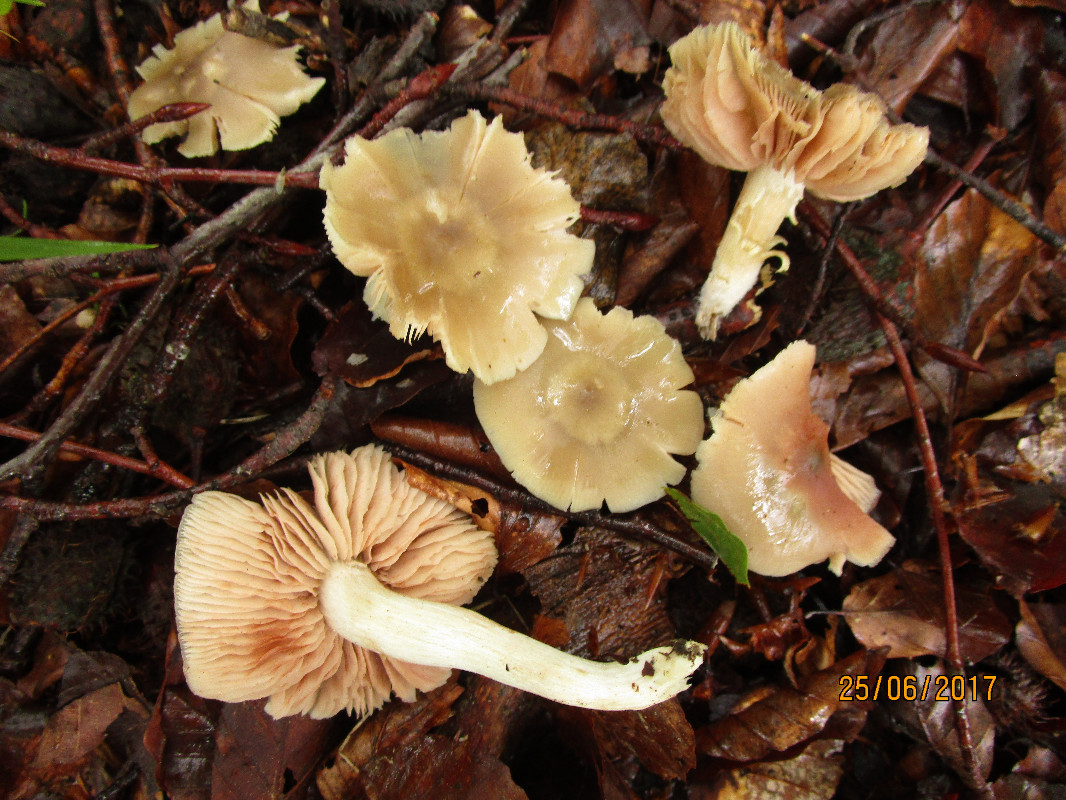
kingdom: Fungi
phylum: Basidiomycota
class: Agaricomycetes
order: Agaricales
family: Entolomataceae
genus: Entoloma
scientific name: Entoloma
